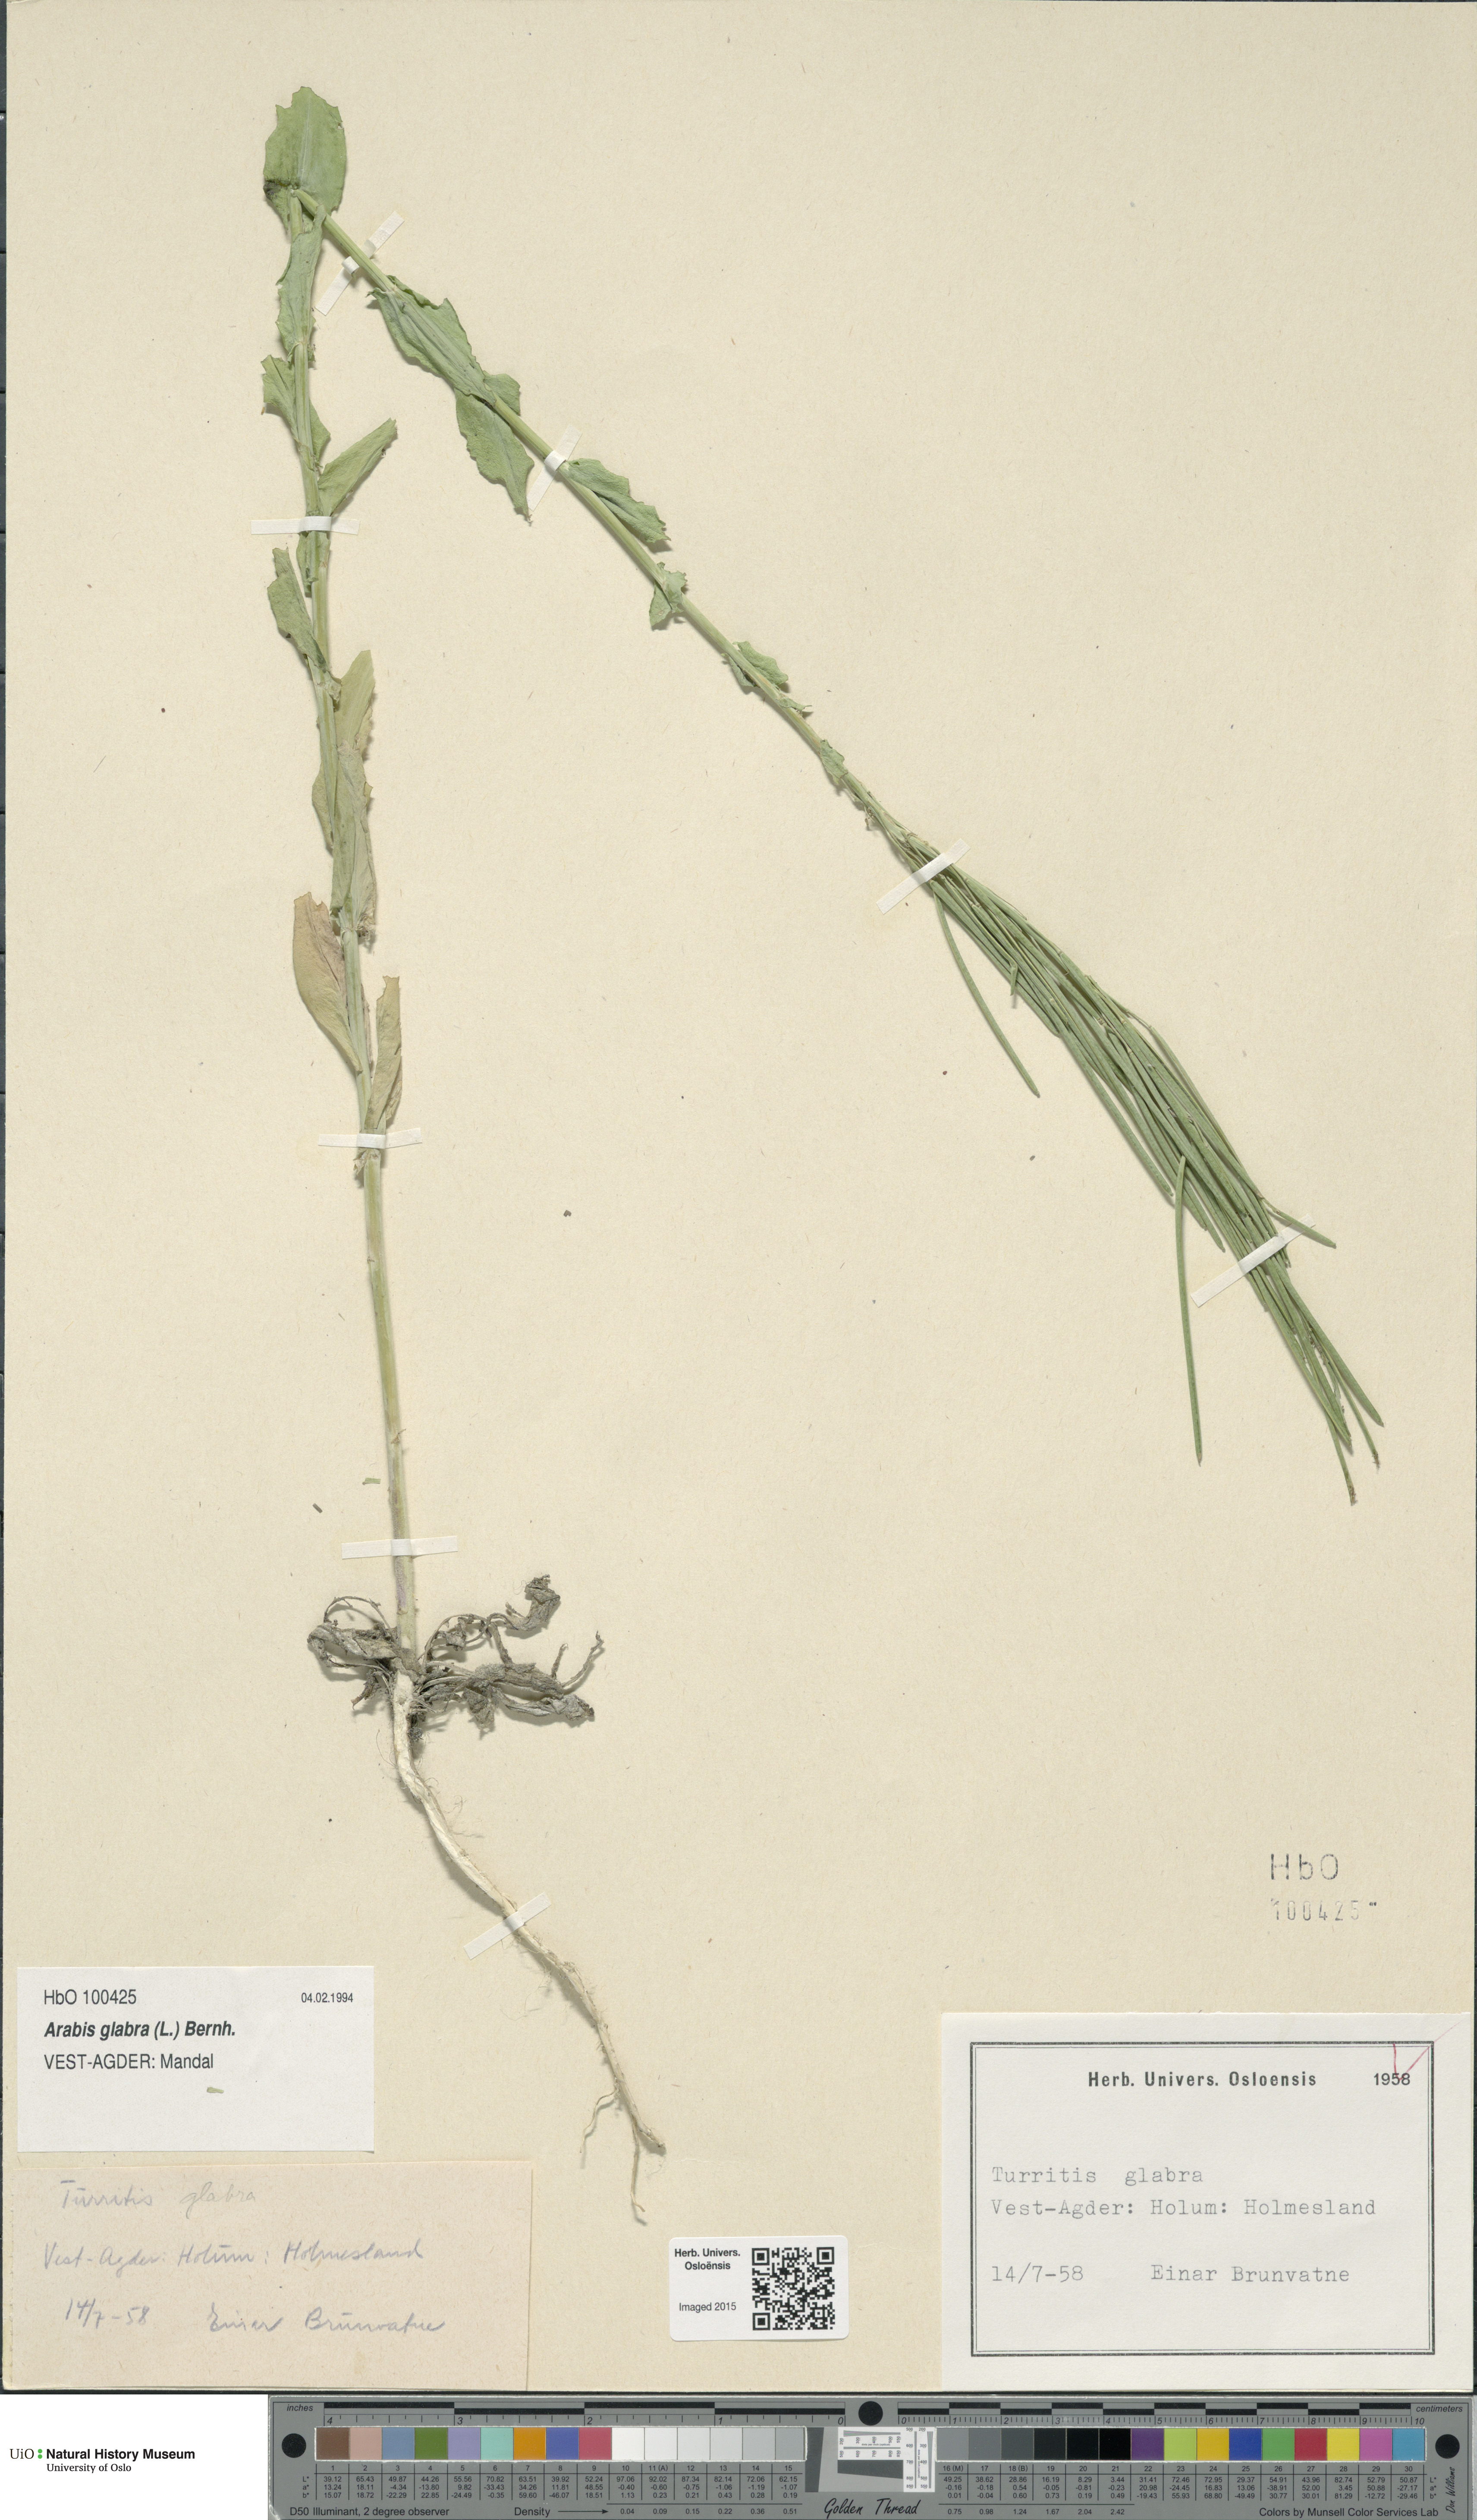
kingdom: Plantae
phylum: Tracheophyta
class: Magnoliopsida
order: Brassicales
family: Brassicaceae
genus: Turritis
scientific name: Turritis glabra
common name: Tower rockcress
